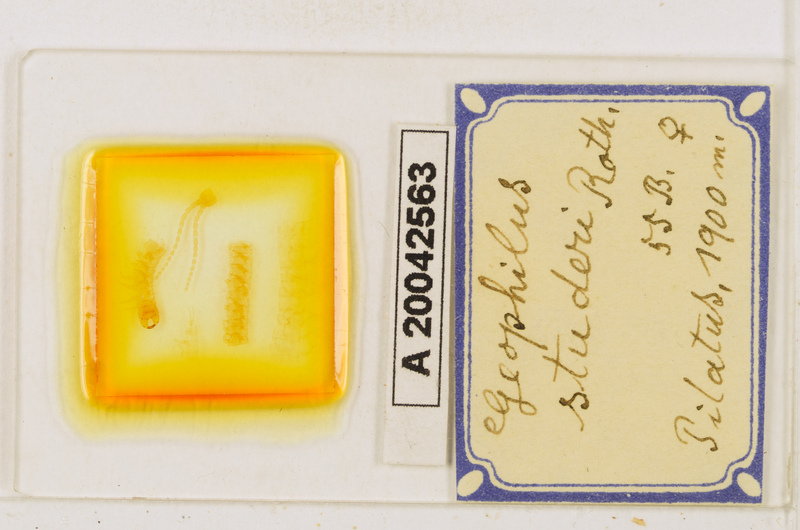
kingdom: Animalia
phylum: Arthropoda
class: Chilopoda
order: Geophilomorpha
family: Geophilidae
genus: Geophilus
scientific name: Geophilus studeri
